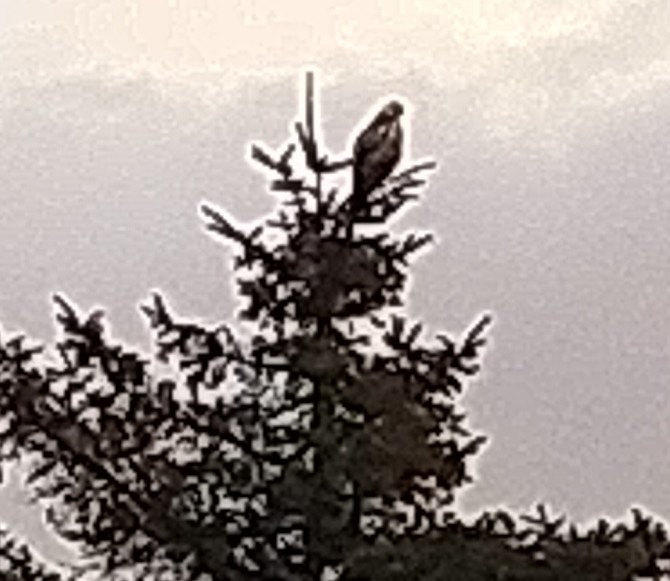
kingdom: Animalia
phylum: Chordata
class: Aves
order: Accipitriformes
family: Accipitridae
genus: Buteo
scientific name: Buteo buteo
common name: Musvåge
